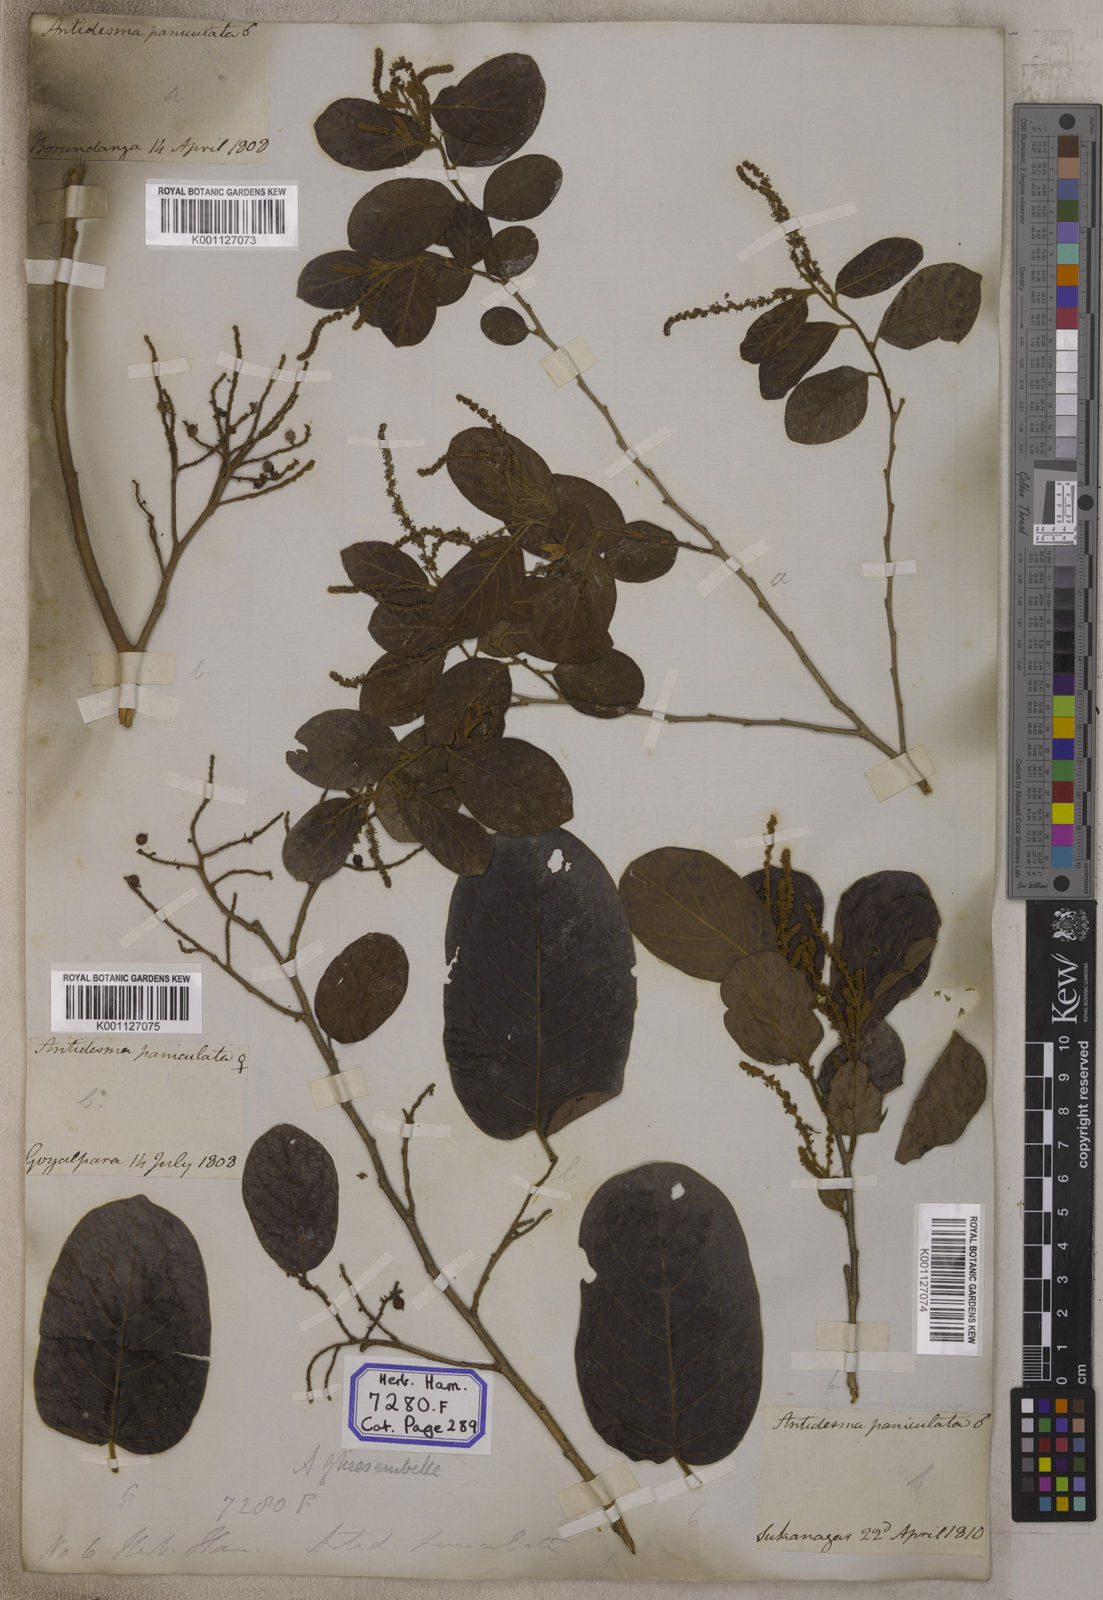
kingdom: Plantae
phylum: Tracheophyta
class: Magnoliopsida
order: Malpighiales
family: Phyllanthaceae
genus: Antidesma
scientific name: Antidesma
